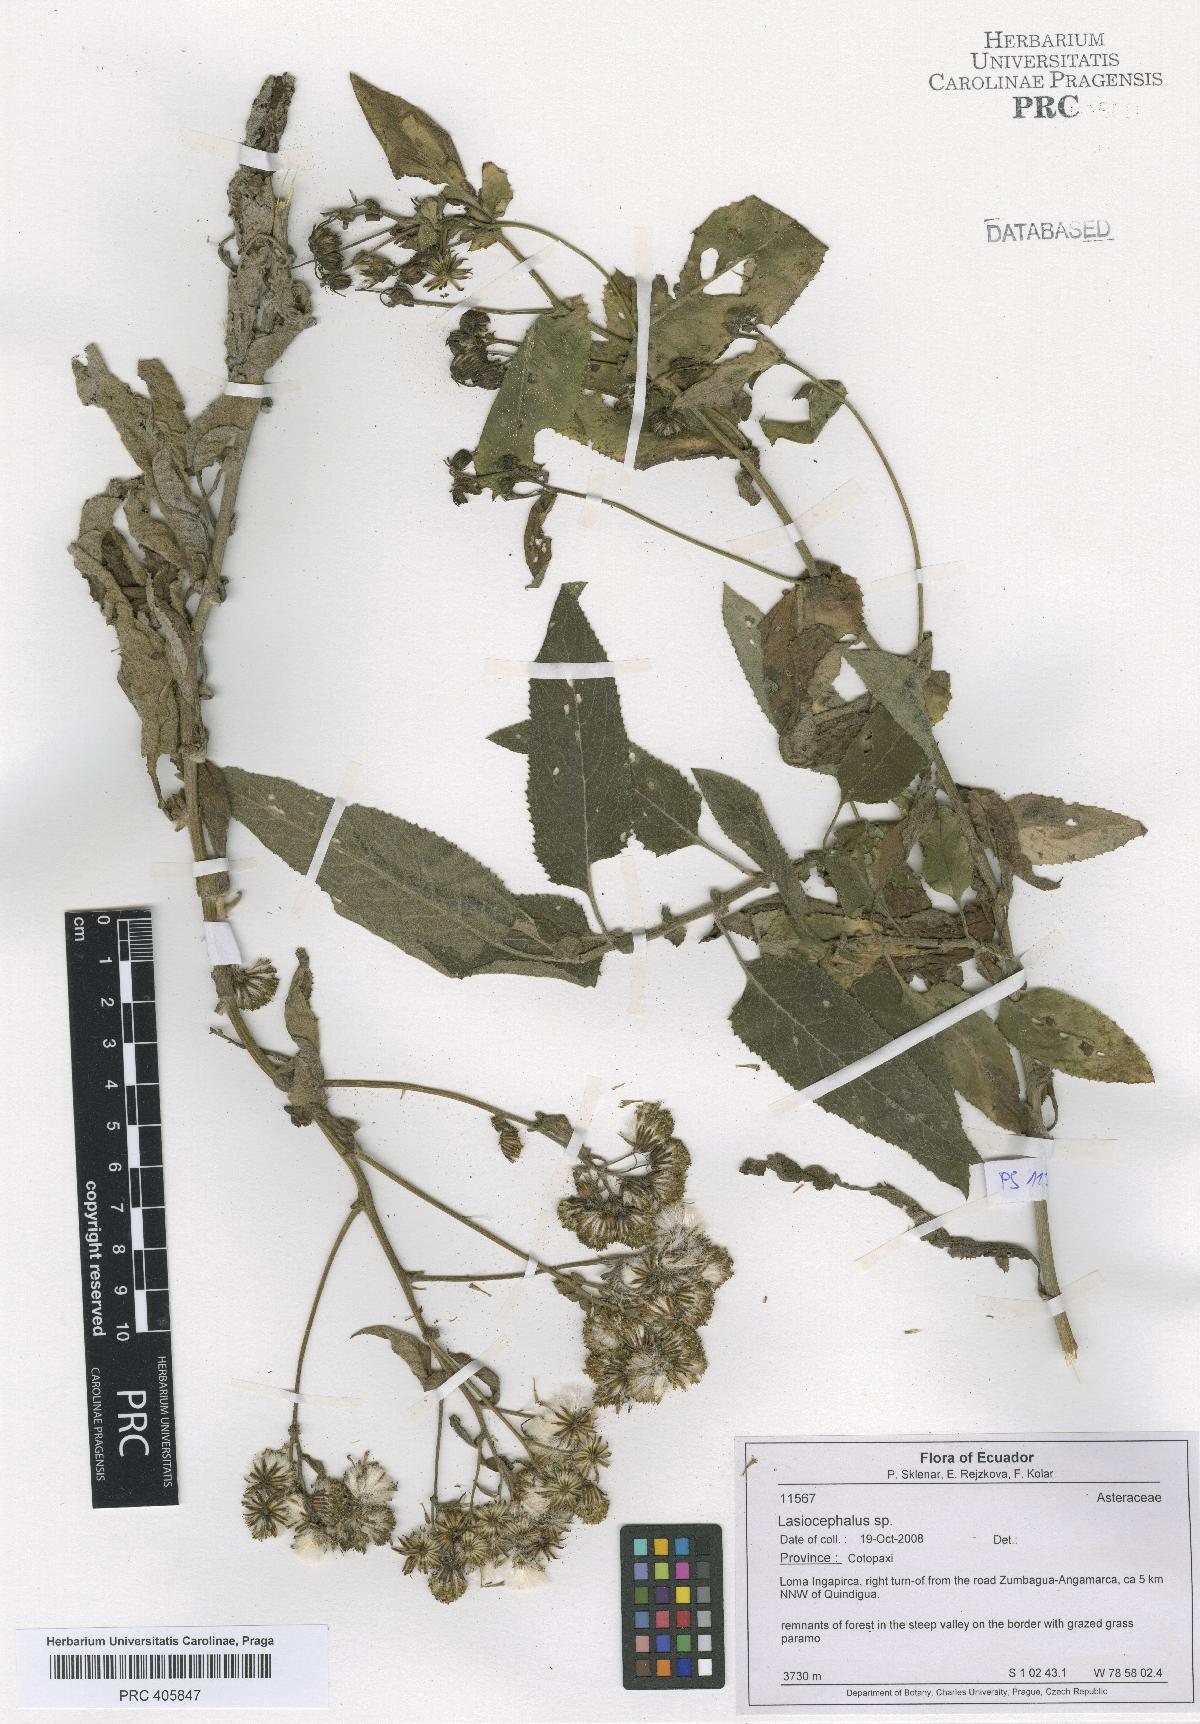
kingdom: Plantae
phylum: Tracheophyta
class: Magnoliopsida
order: Asterales
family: Asteraceae
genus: Lasiocephalus
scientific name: Lasiocephalus
